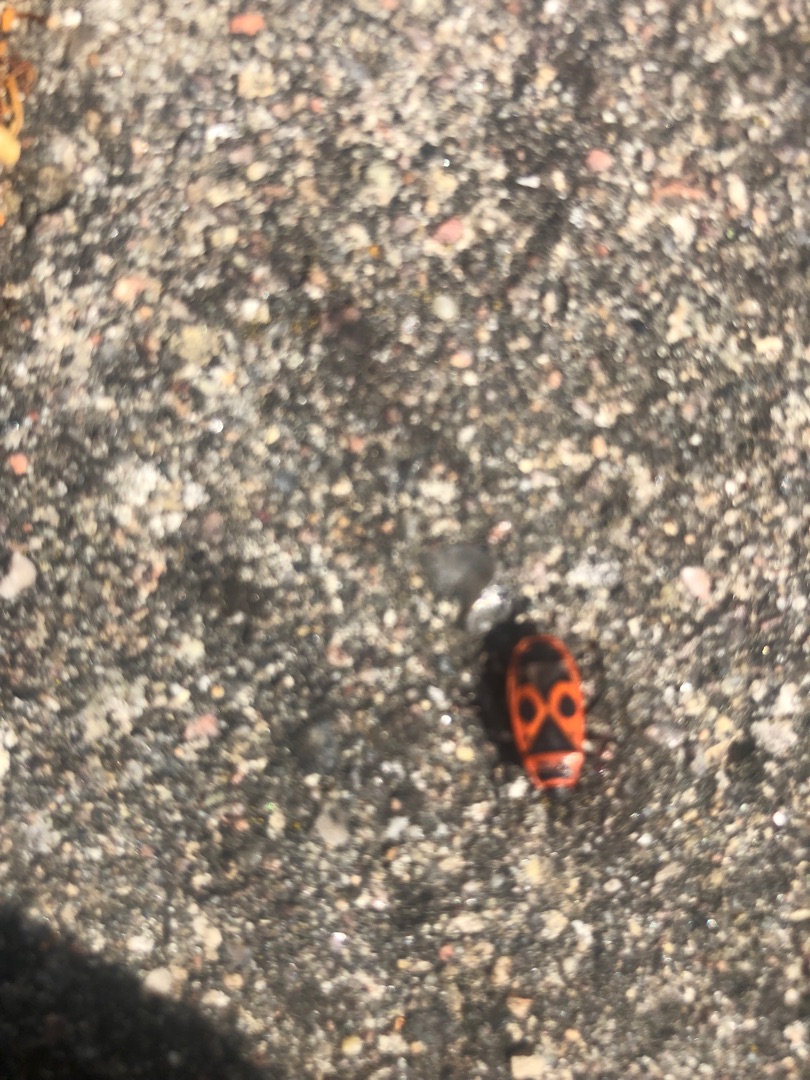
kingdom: Animalia
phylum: Arthropoda
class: Insecta
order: Hemiptera
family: Pyrrhocoridae
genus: Pyrrhocoris
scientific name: Pyrrhocoris apterus
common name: Ildtæge
